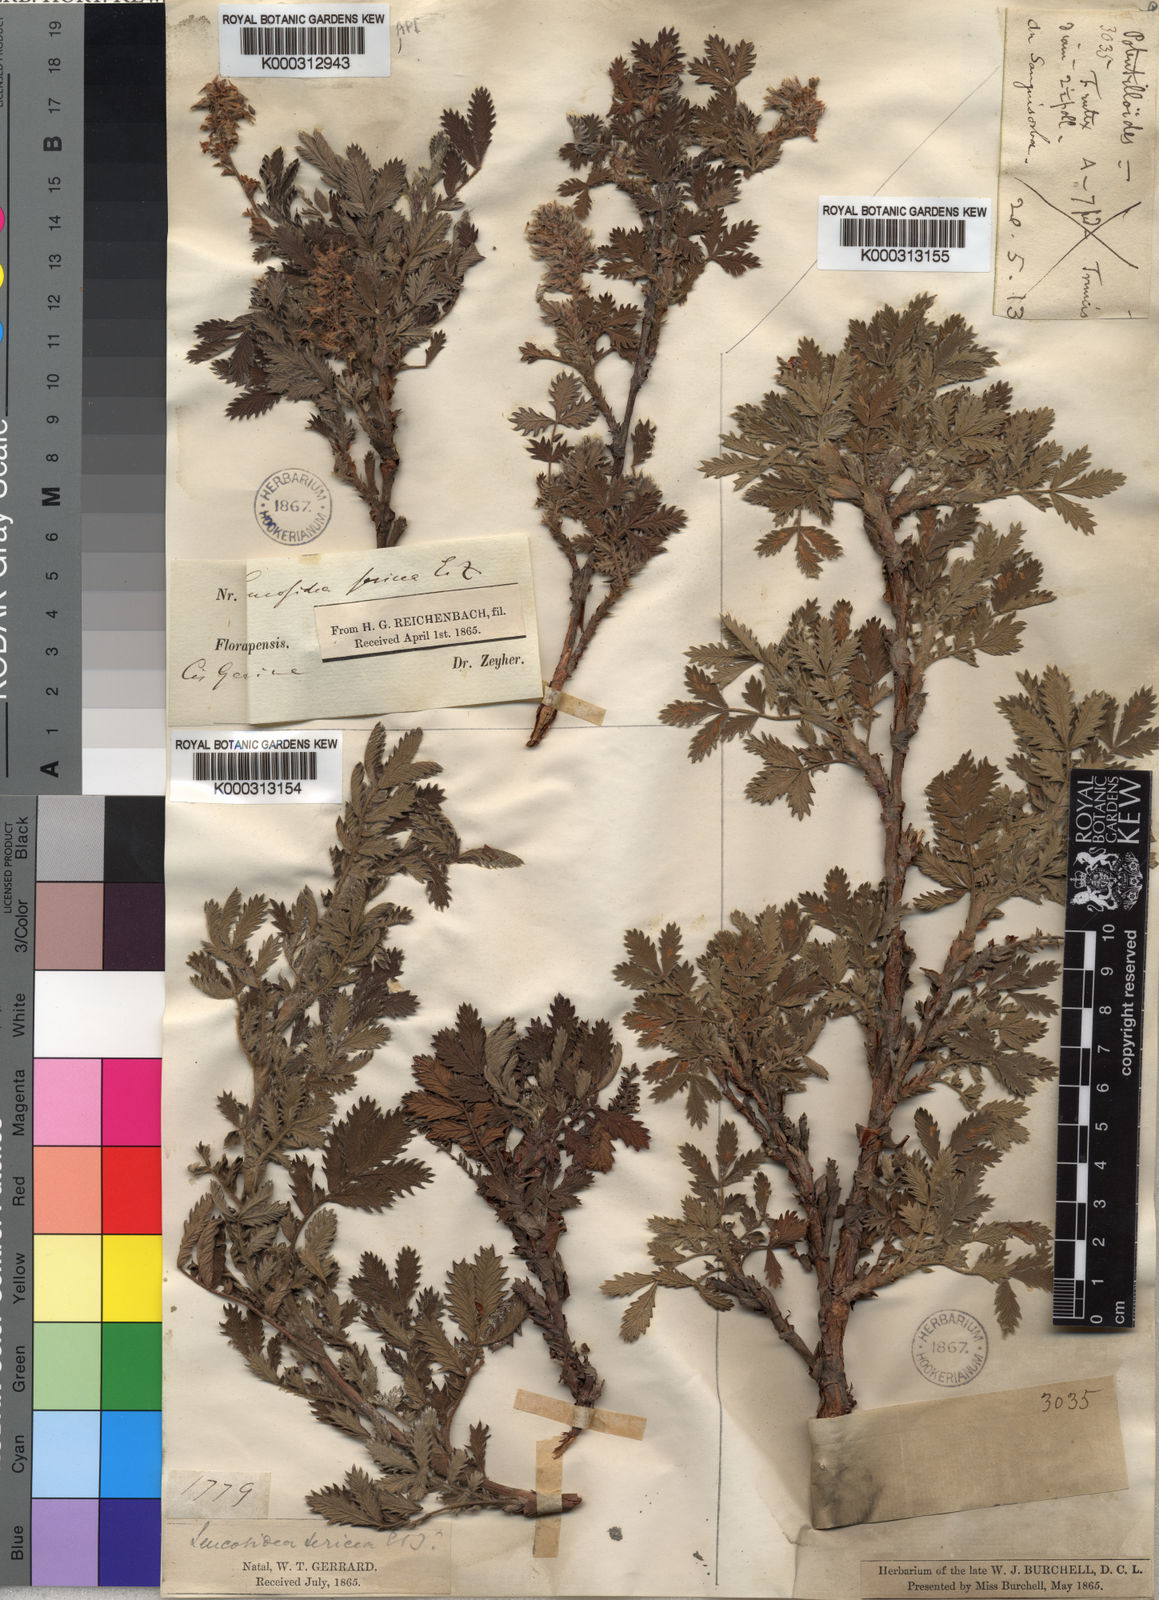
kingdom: Plantae
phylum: Tracheophyta
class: Magnoliopsida
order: Rosales
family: Rosaceae
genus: Leucosidea
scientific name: Leucosidea sericea
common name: Oldwood
